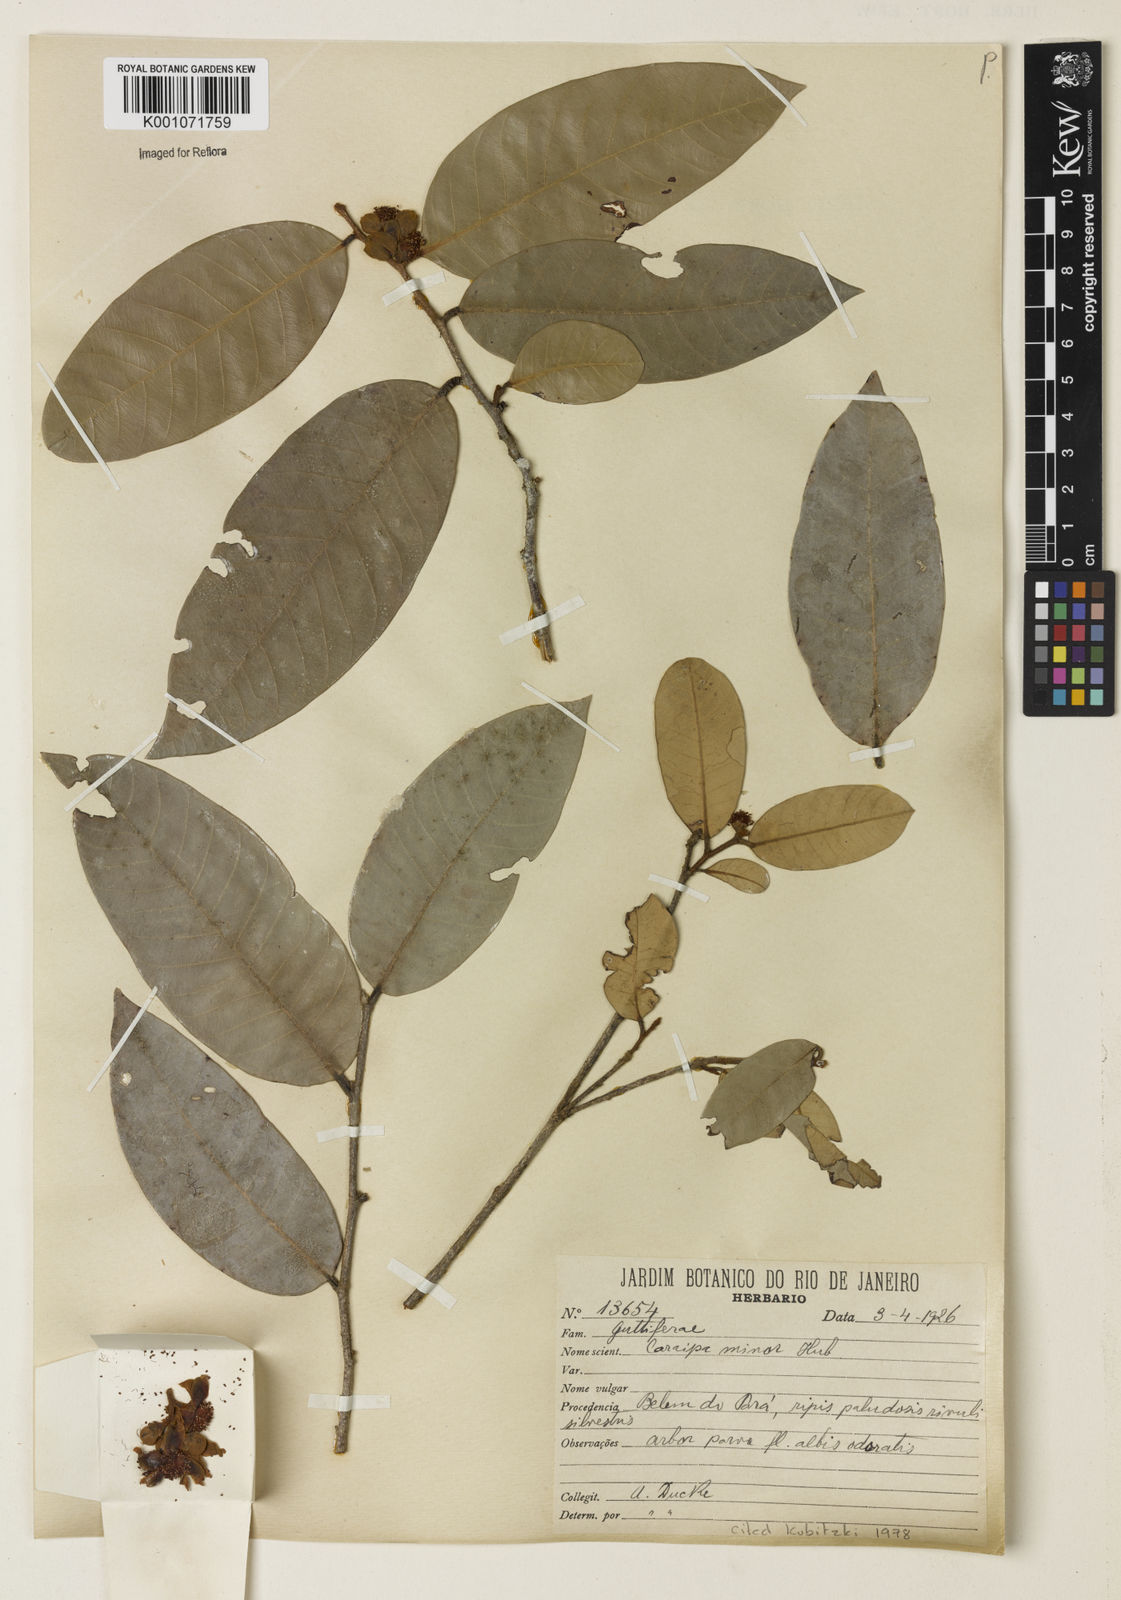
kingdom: Plantae
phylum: Tracheophyta
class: Magnoliopsida
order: Malpighiales
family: Calophyllaceae
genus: Caraipa
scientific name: Caraipa minor
